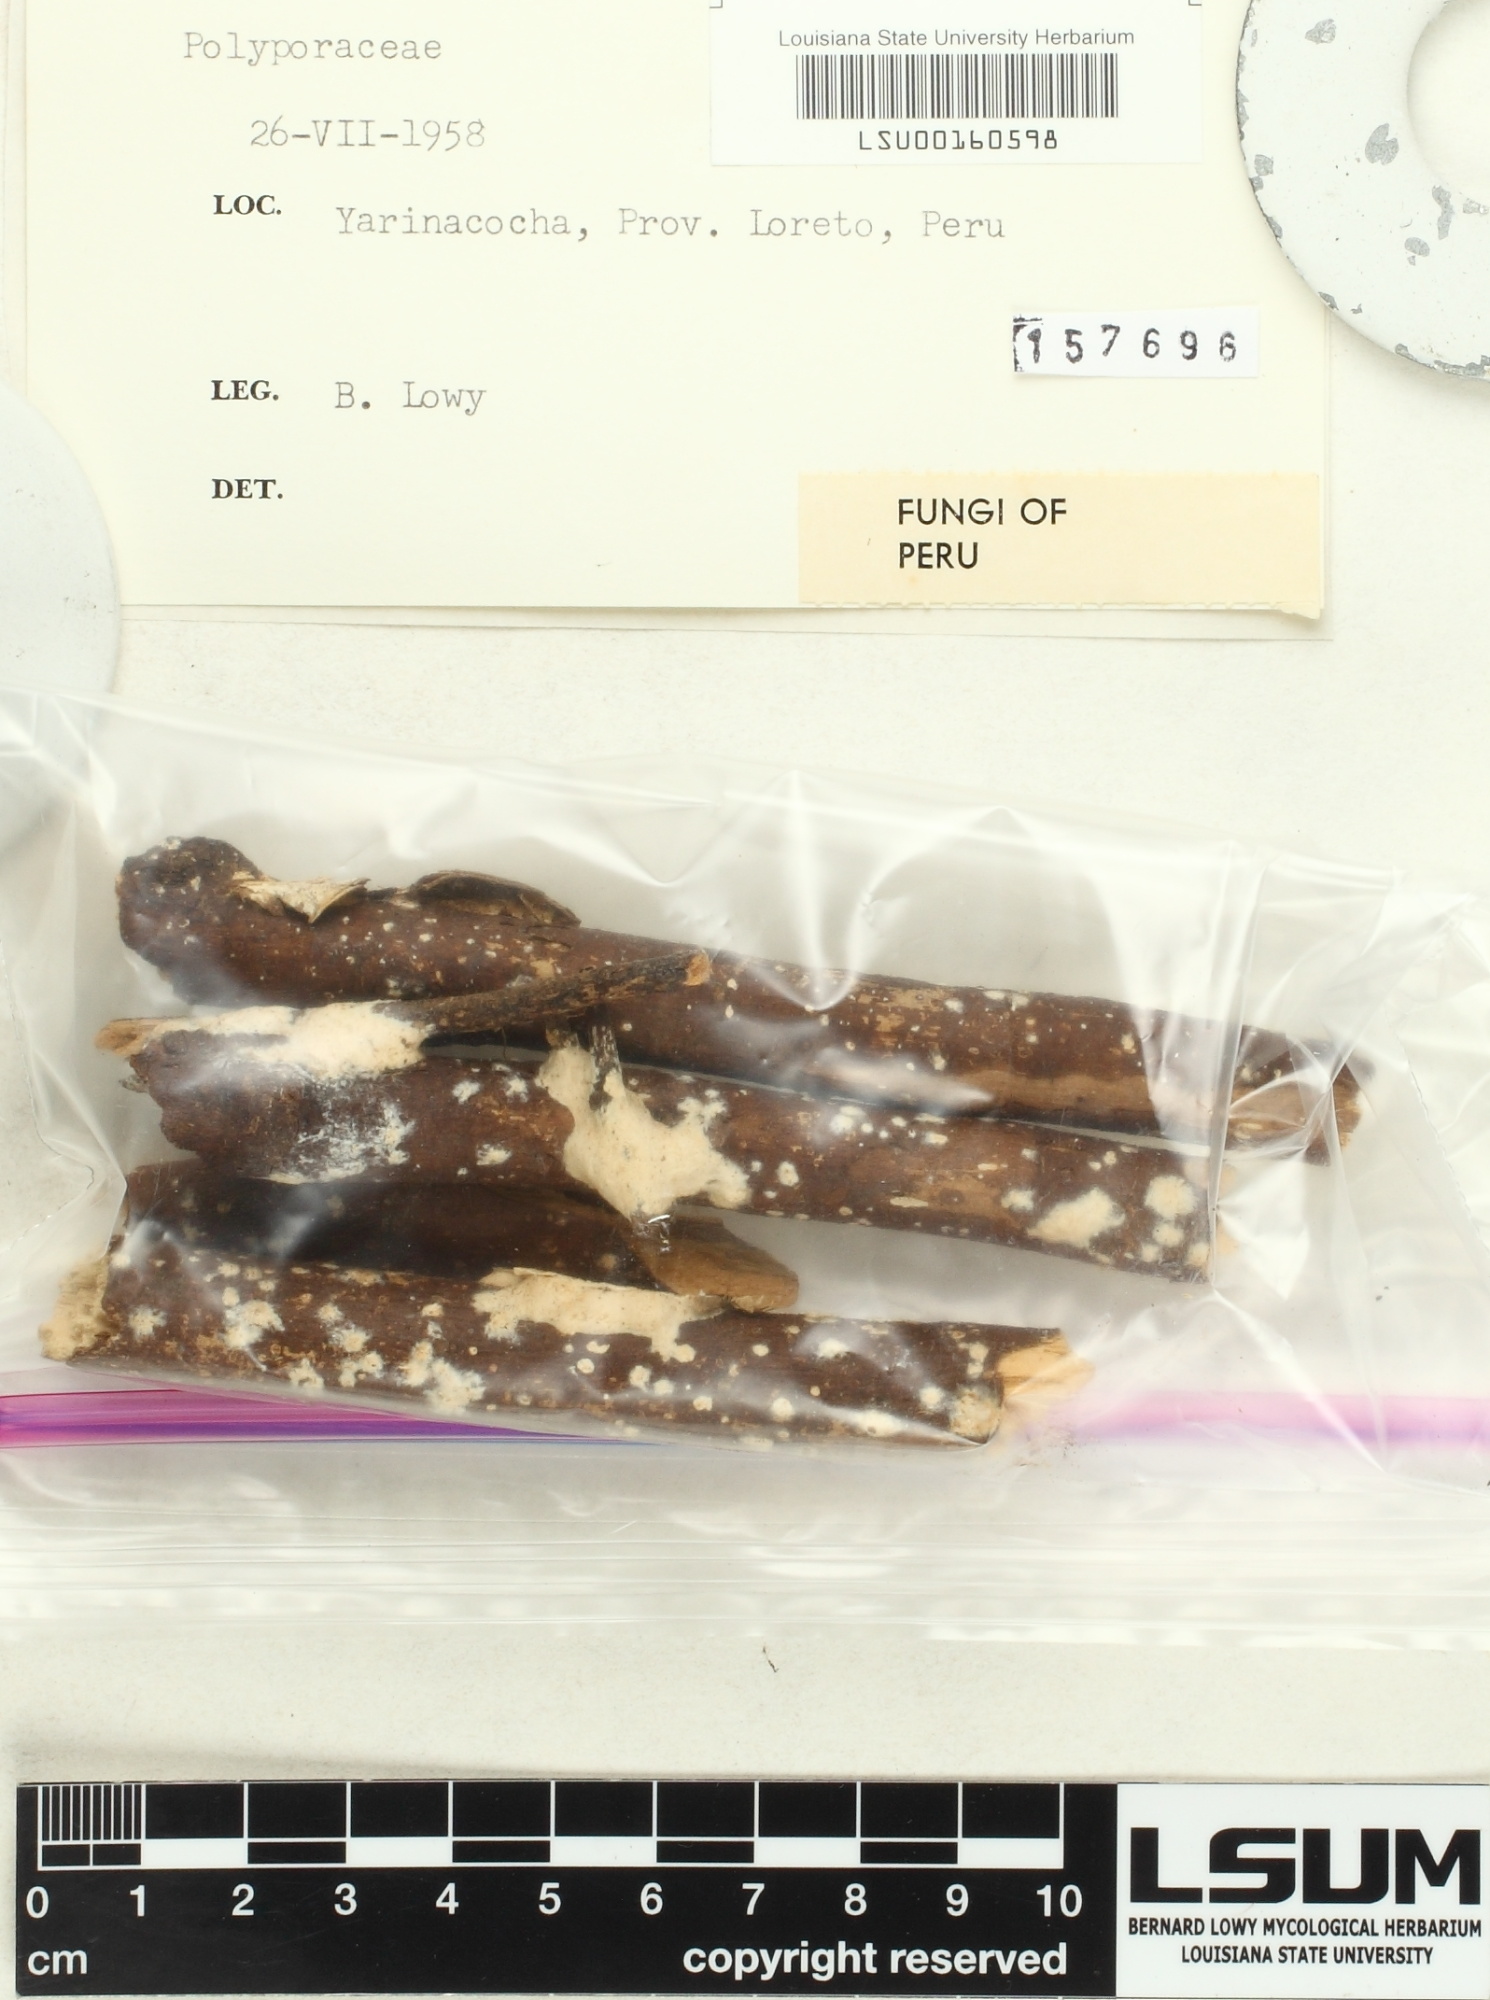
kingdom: Fungi
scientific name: Fungi
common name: Fungi
